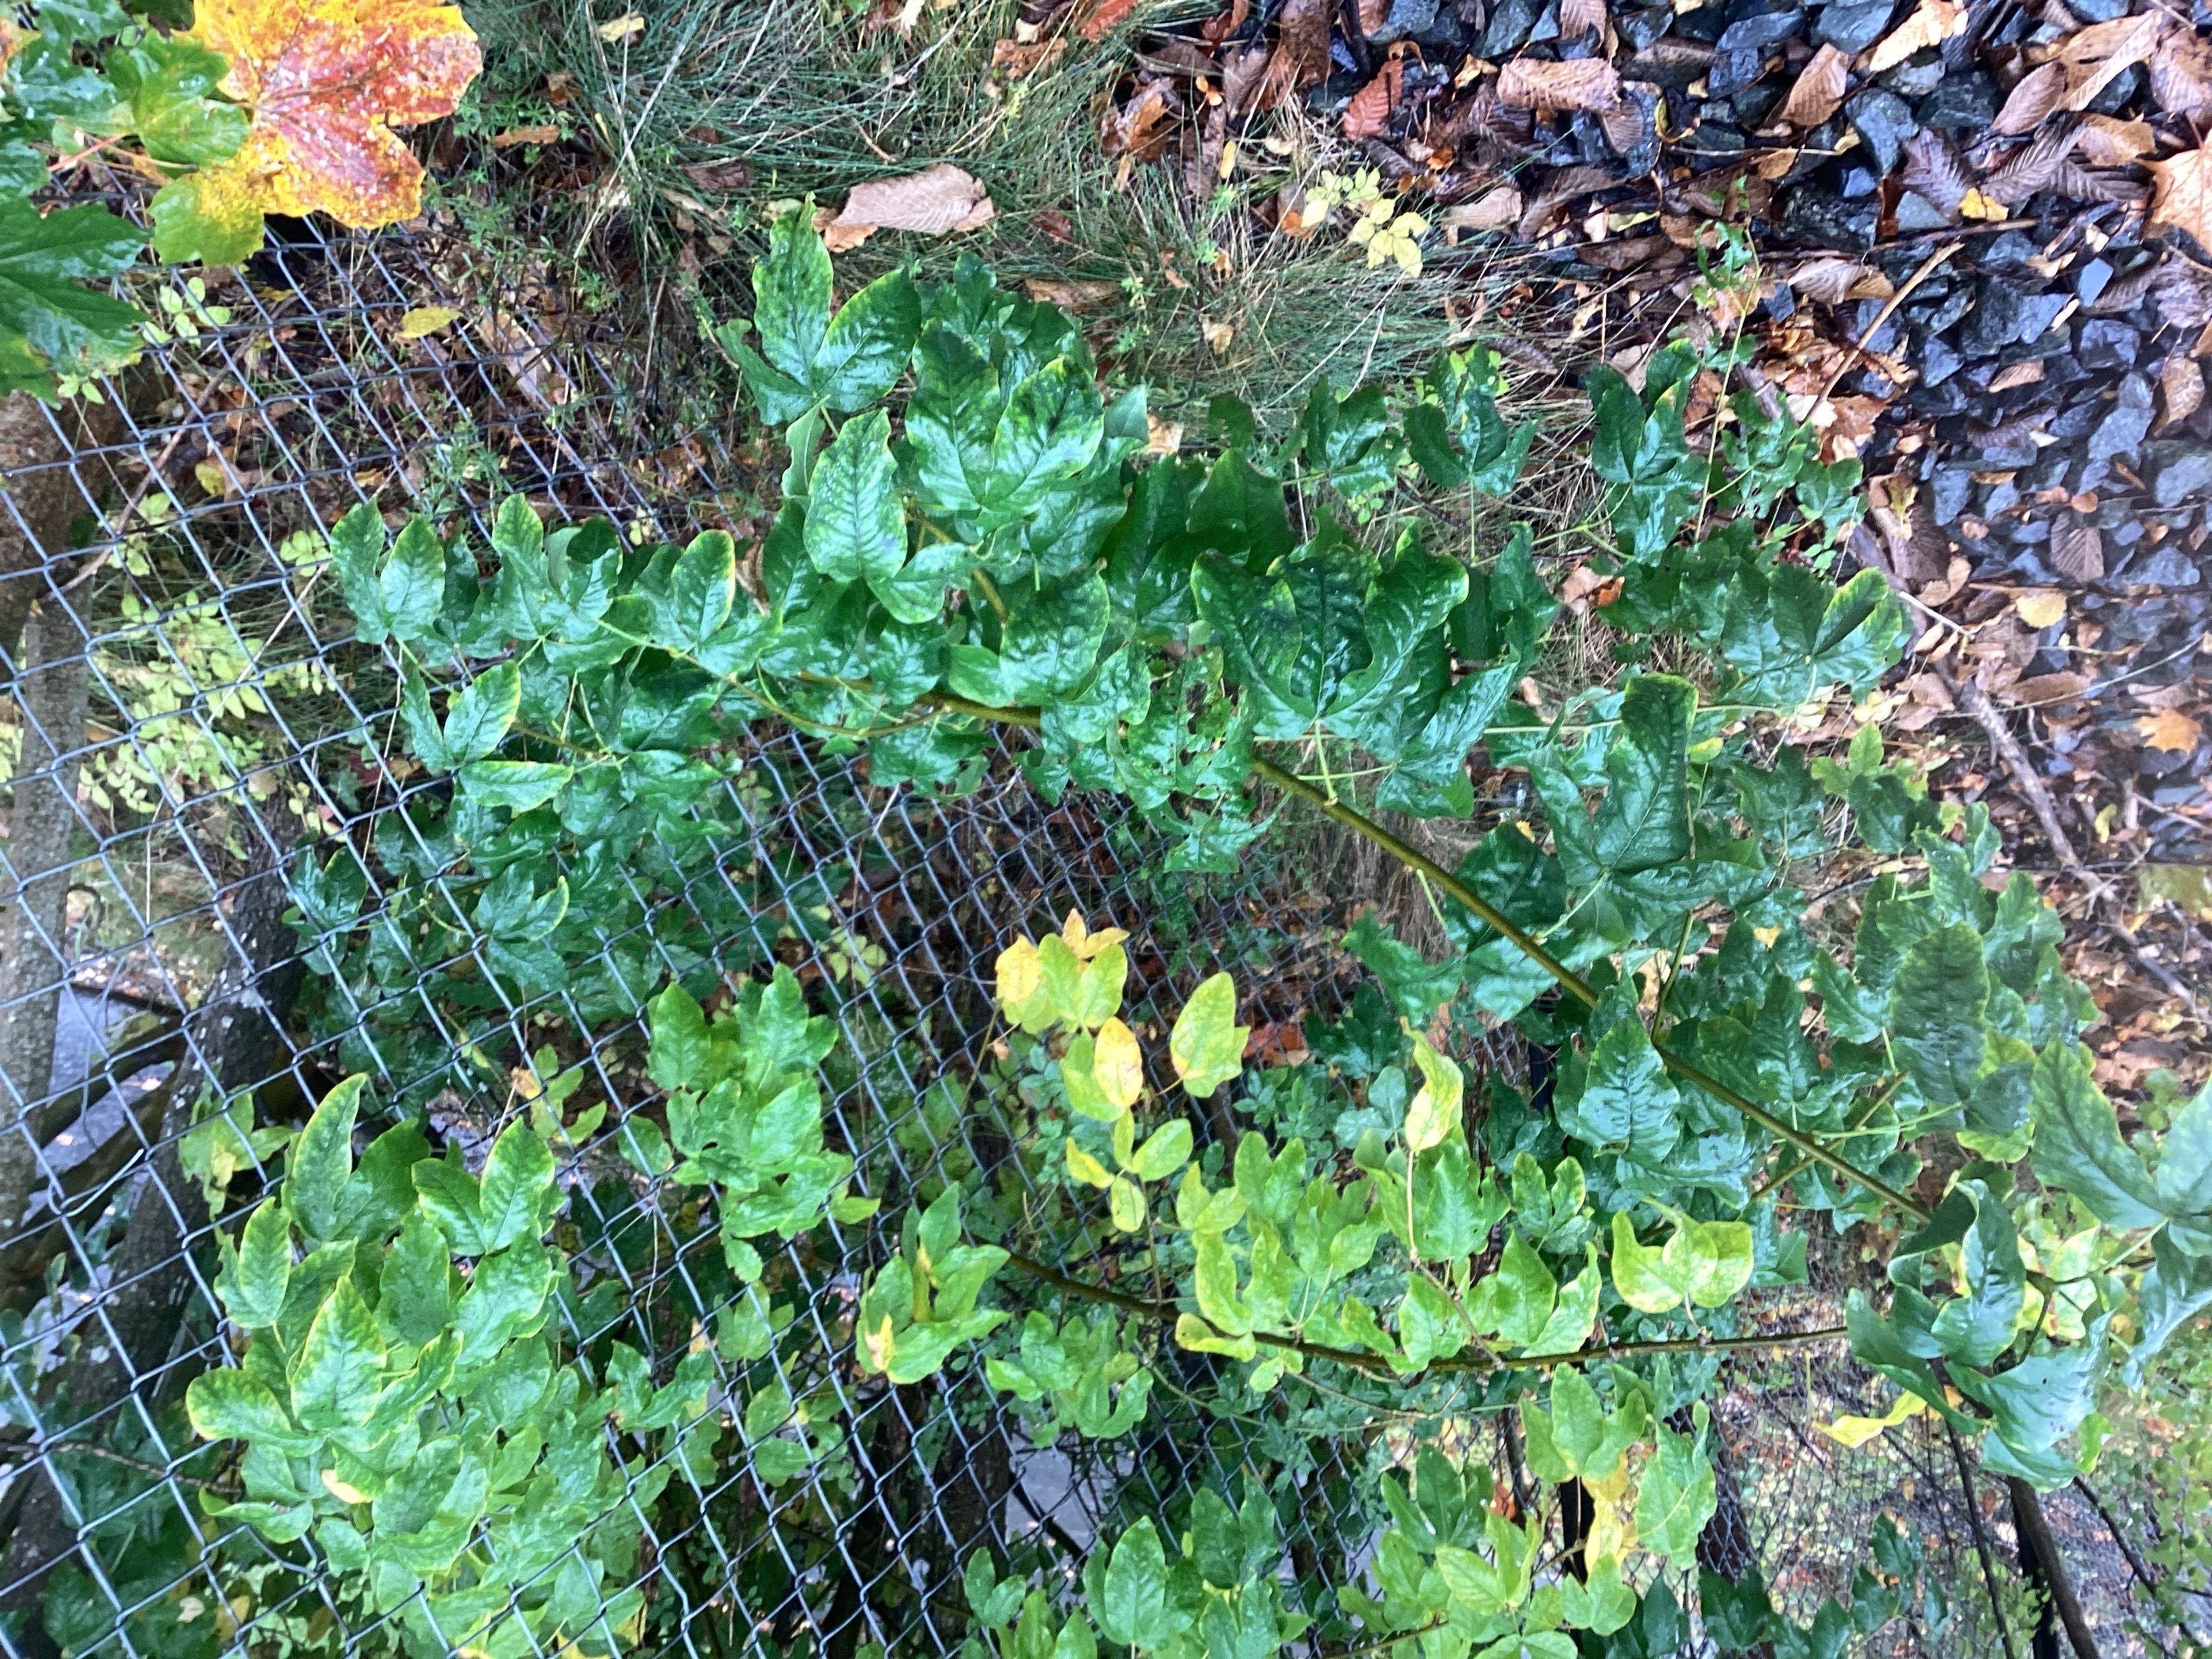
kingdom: Plantae
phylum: Tracheophyta
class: Magnoliopsida
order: Fabales
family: Fabaceae
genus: Laburnum
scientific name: Laburnum anagyroides
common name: gullregn
